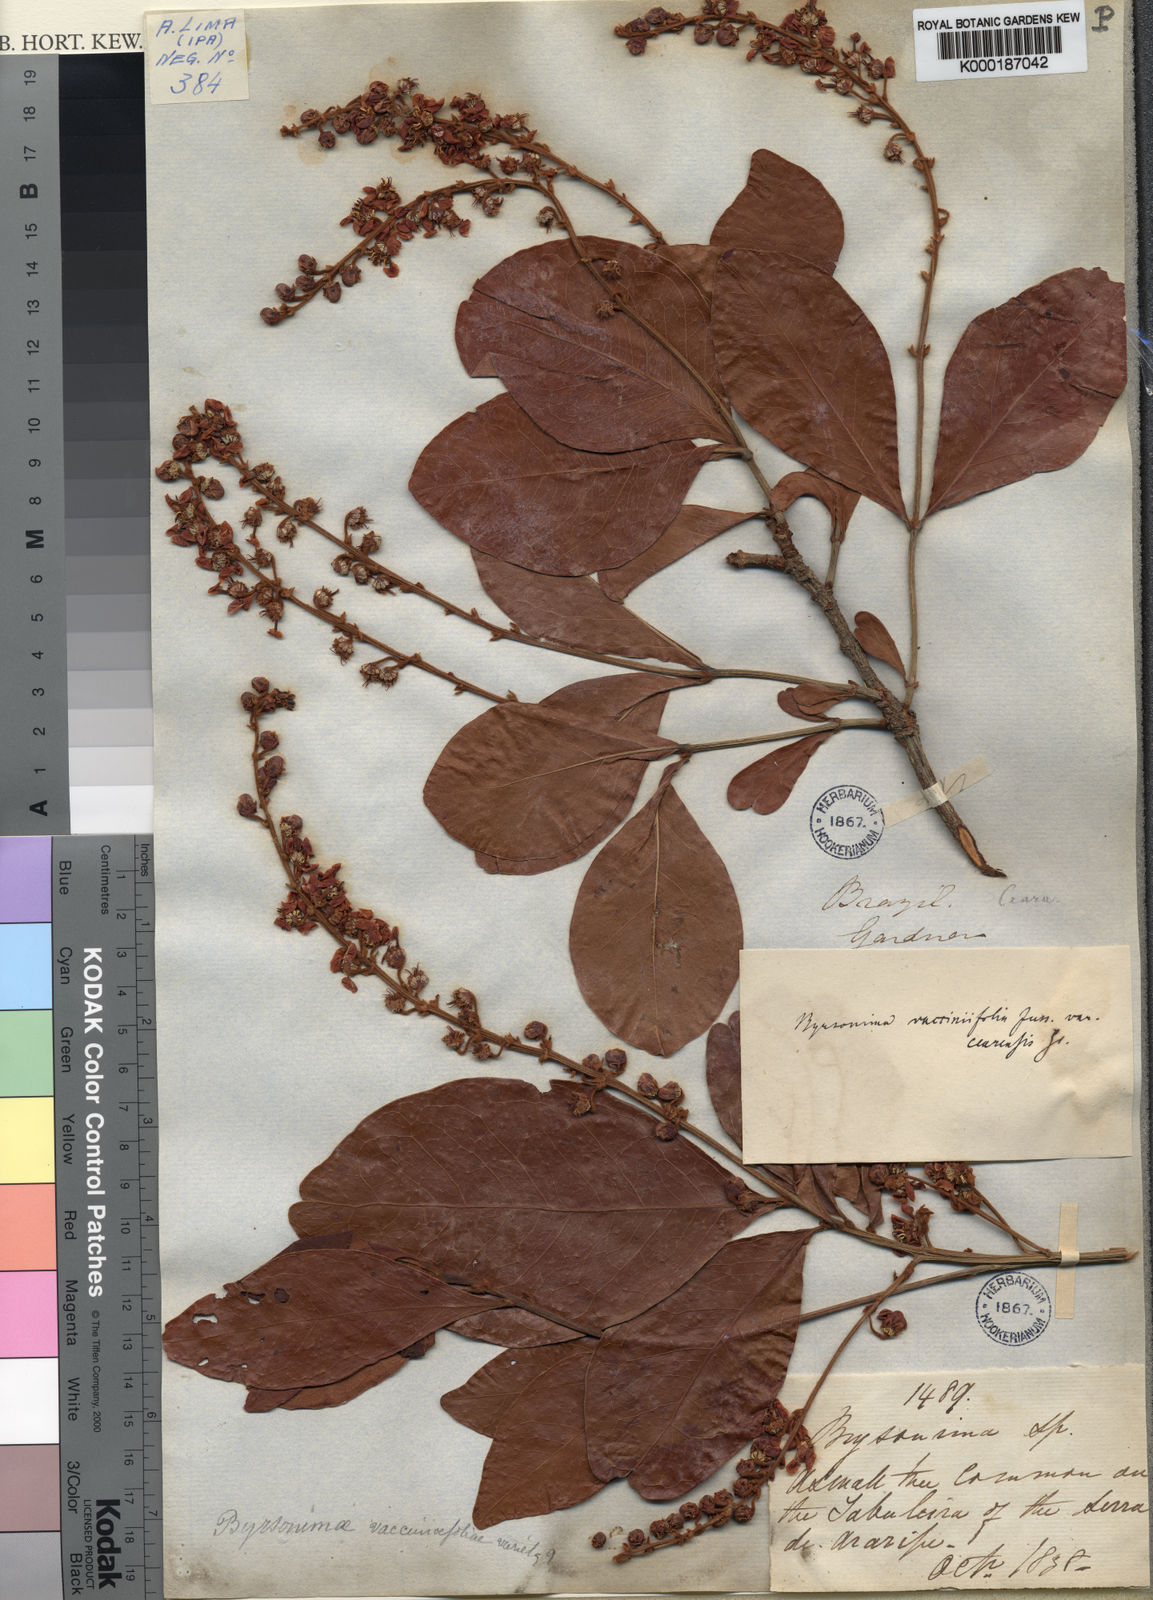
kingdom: Plantae
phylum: Tracheophyta
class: Magnoliopsida
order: Malpighiales
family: Malpighiaceae
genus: Byrsonima
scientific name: Byrsonima vacciniifolia
